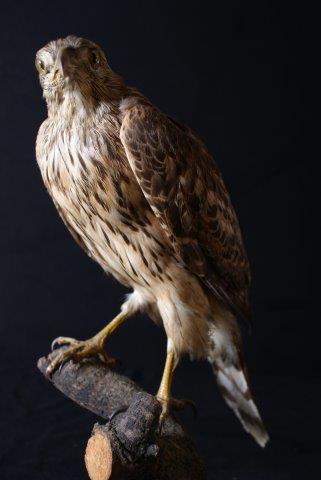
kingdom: Animalia
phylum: Chordata
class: Aves
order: Accipitriformes
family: Accipitridae
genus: Accipiter
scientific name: Accipiter gentilis
